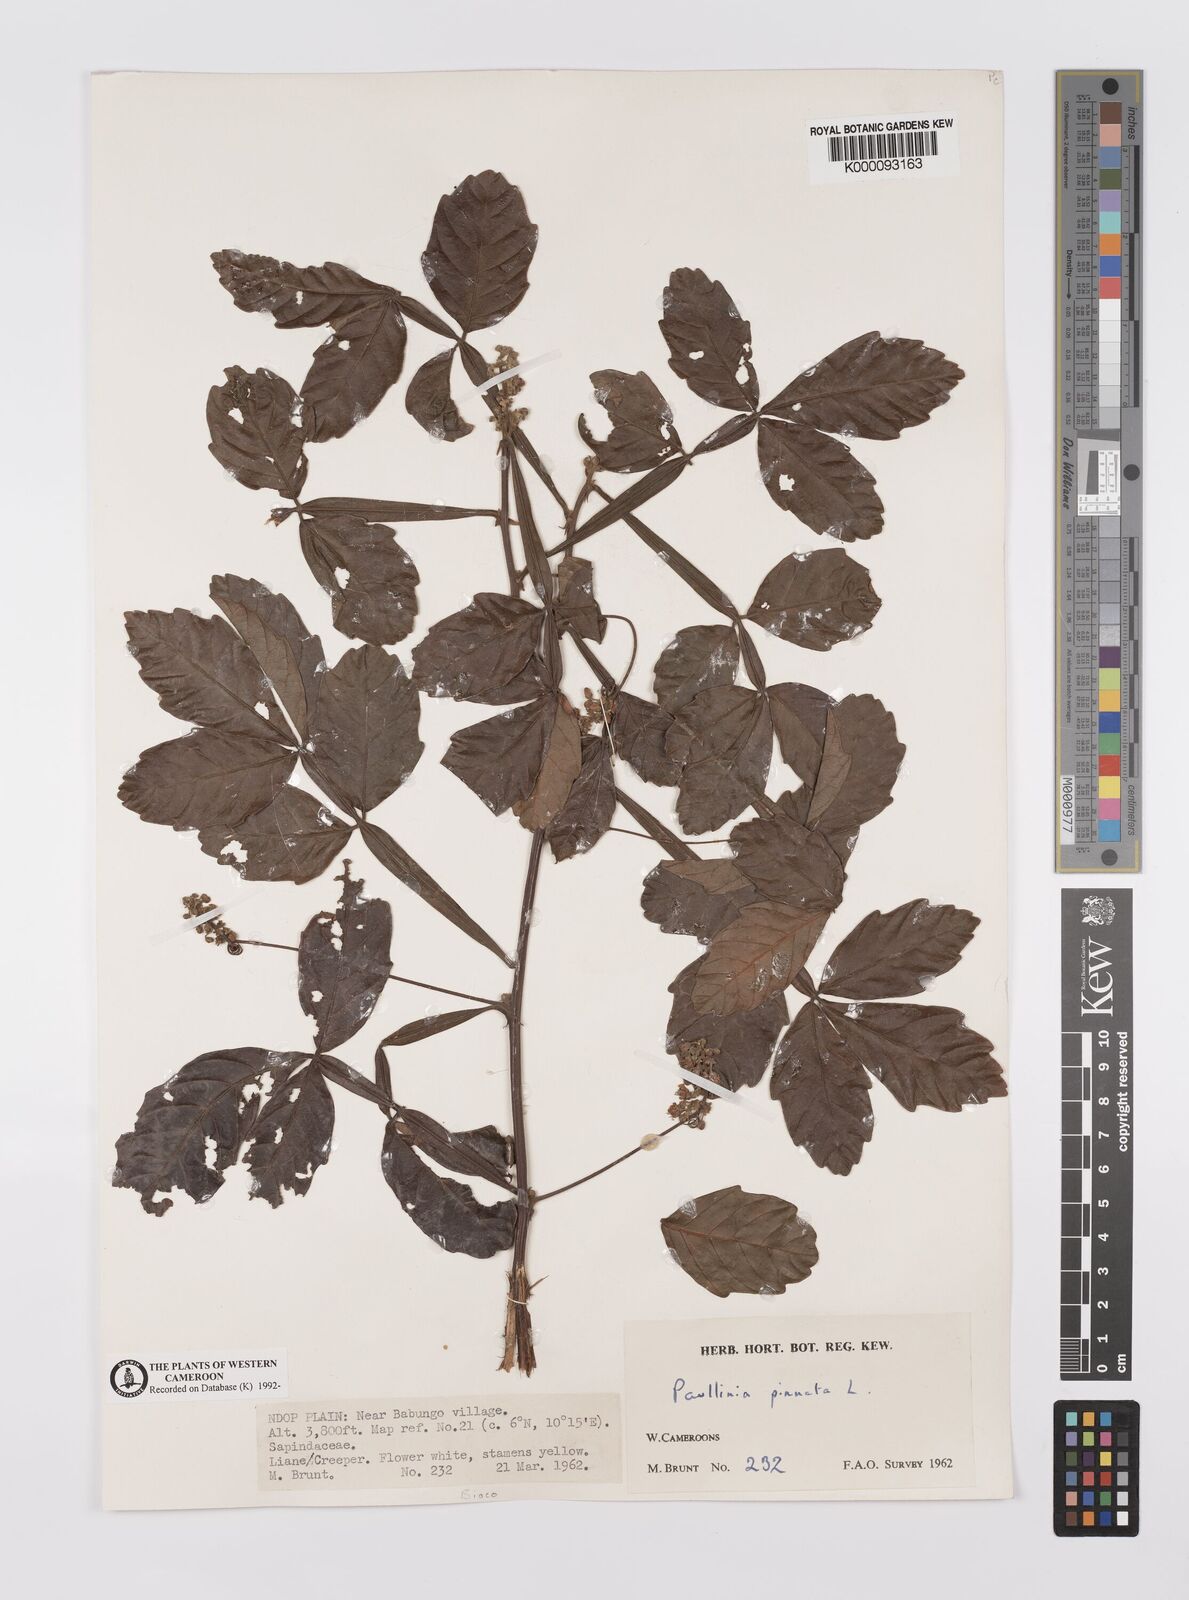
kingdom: Plantae
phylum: Tracheophyta
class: Magnoliopsida
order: Sapindales
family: Sapindaceae
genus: Paullinia
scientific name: Paullinia pinnata
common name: Barbasco
